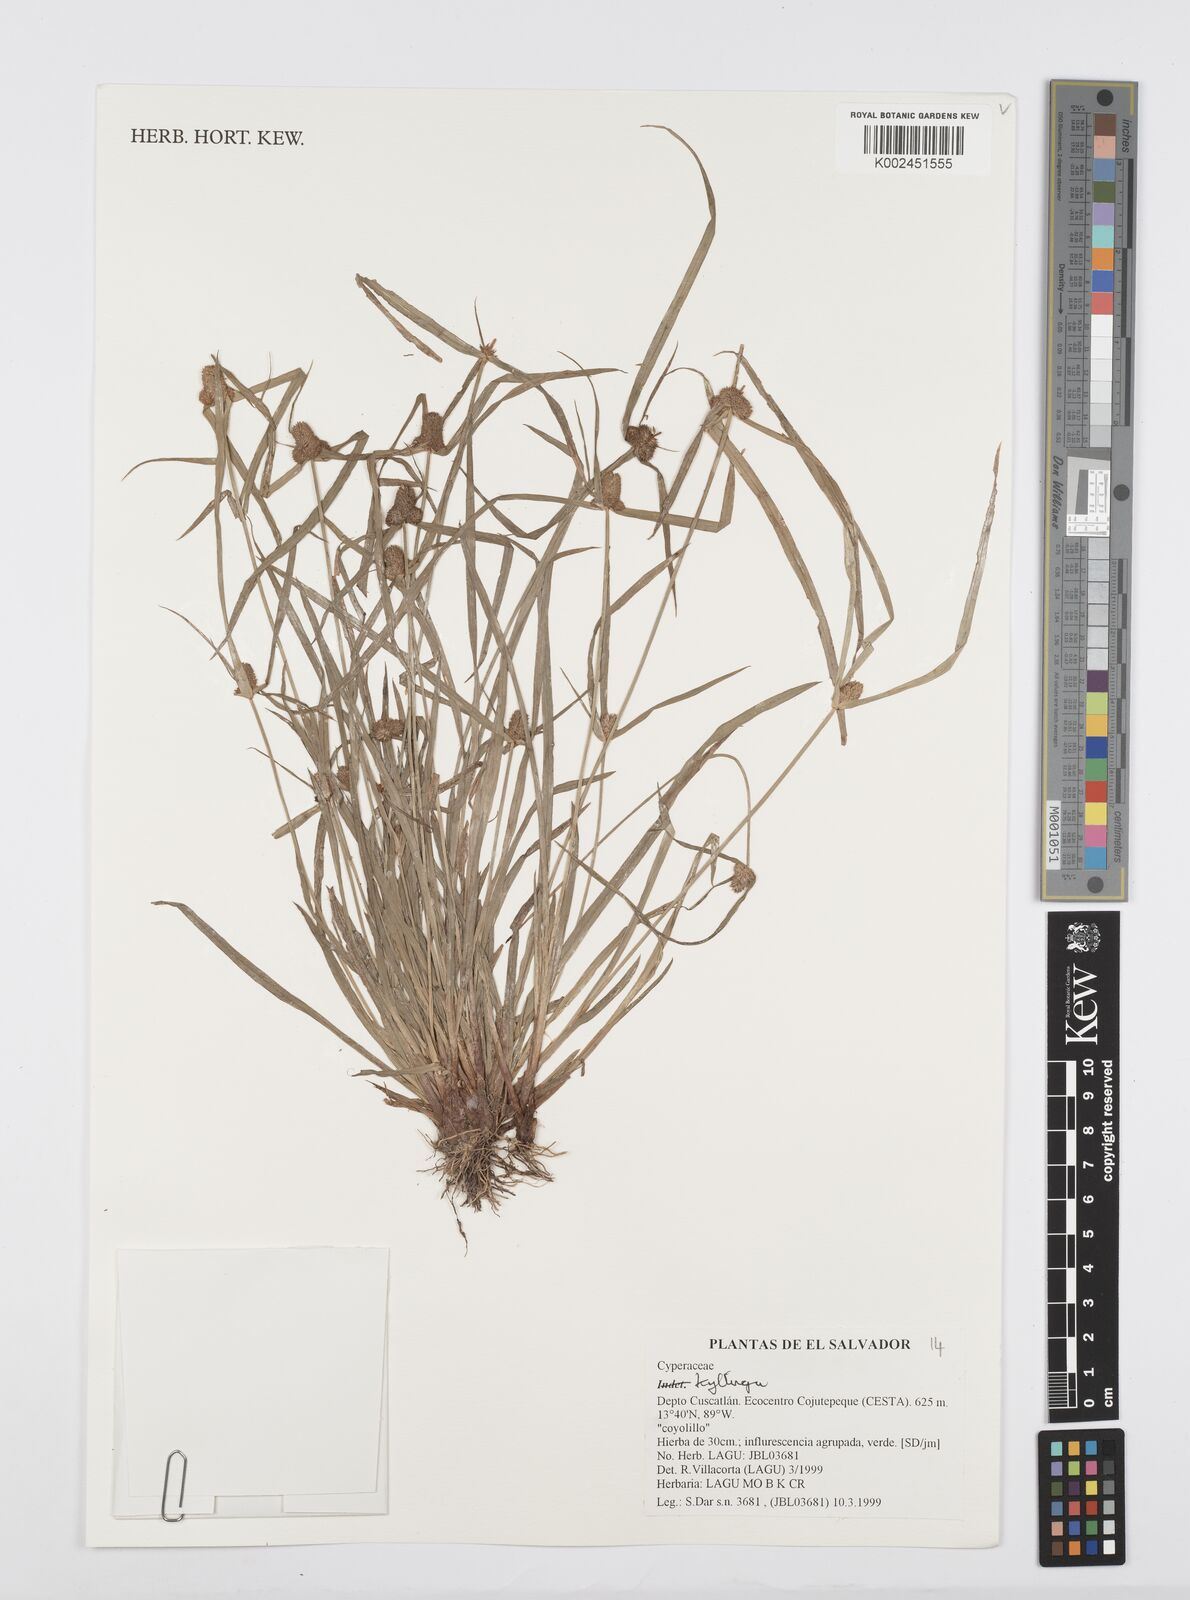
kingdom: Plantae
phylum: Tracheophyta
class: Liliopsida
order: Poales
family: Cyperaceae
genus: Cyperus
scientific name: Cyperus
